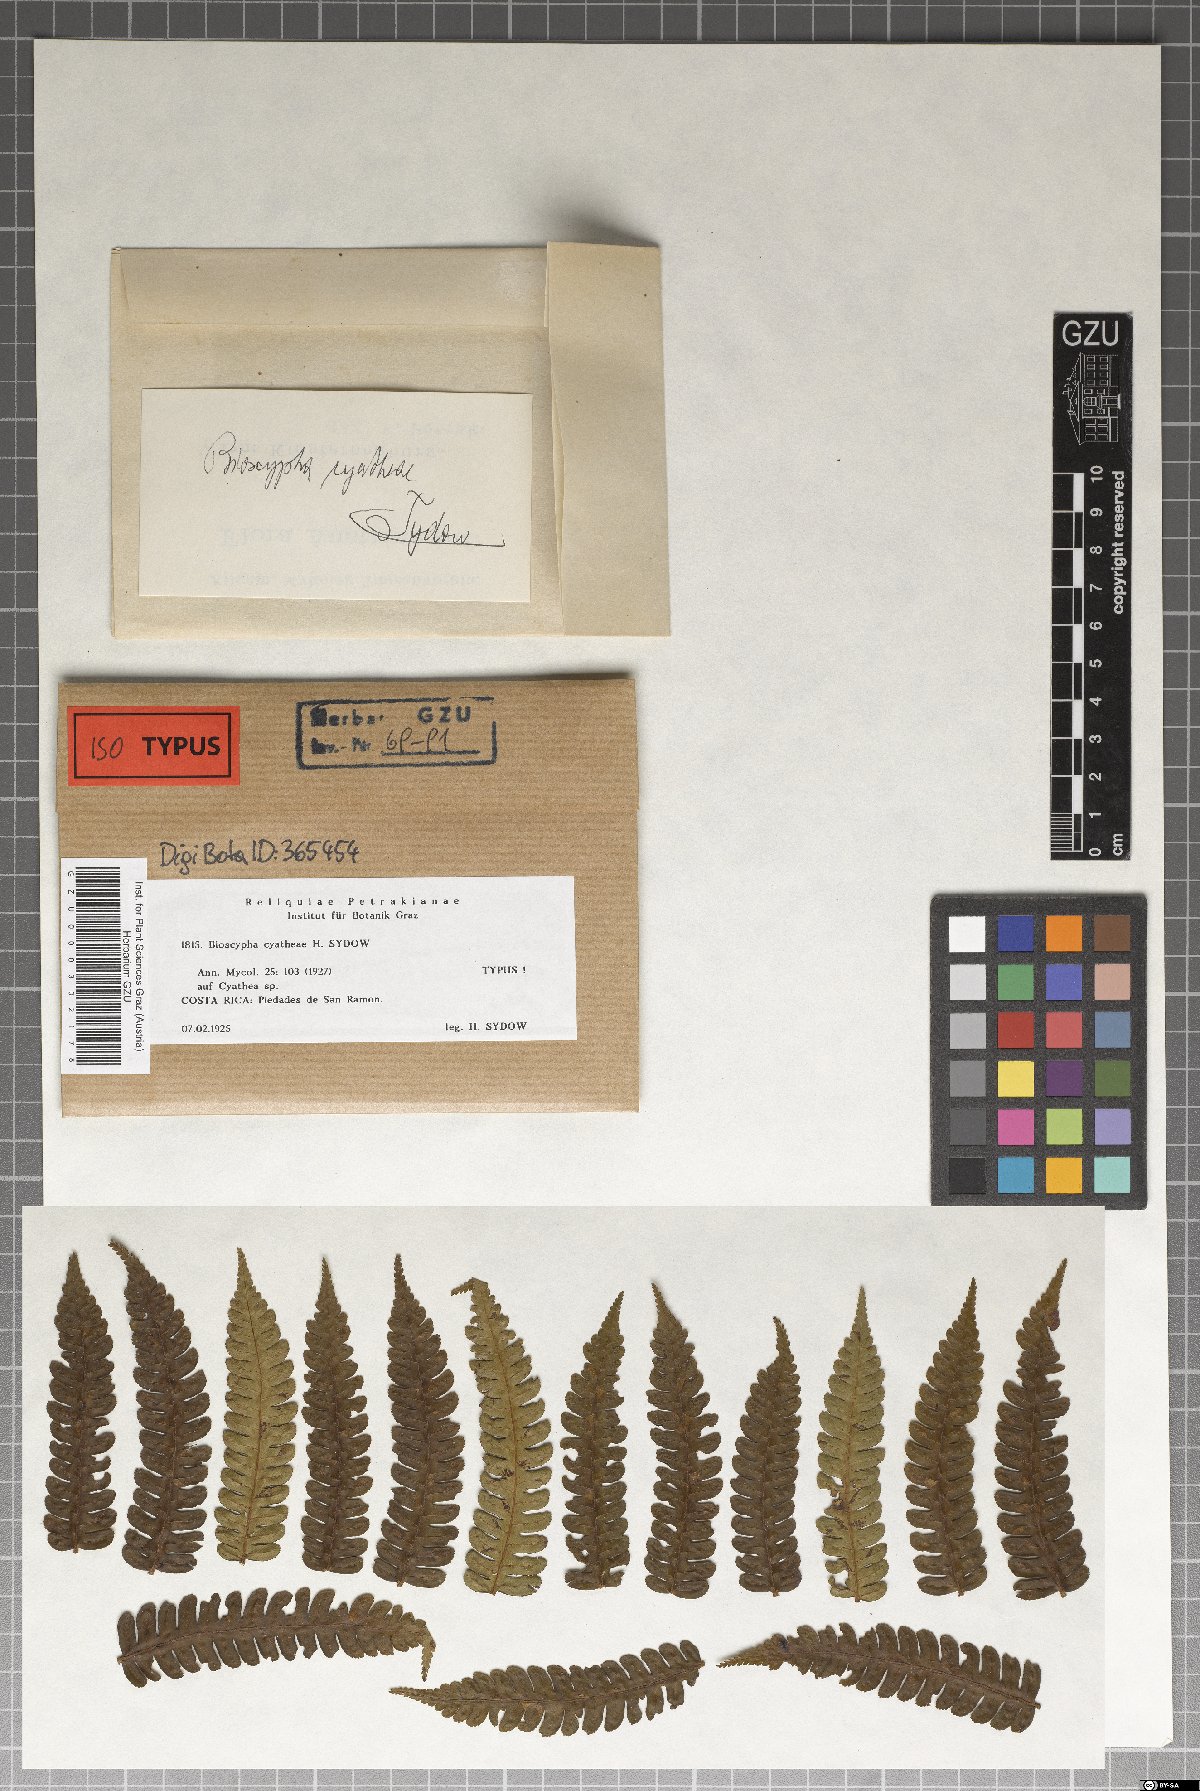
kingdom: Fungi
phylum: Ascomycota
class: Leotiomycetes
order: Helotiales
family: Helotiaceae
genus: Bioscypha
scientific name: Bioscypha cyatheae
